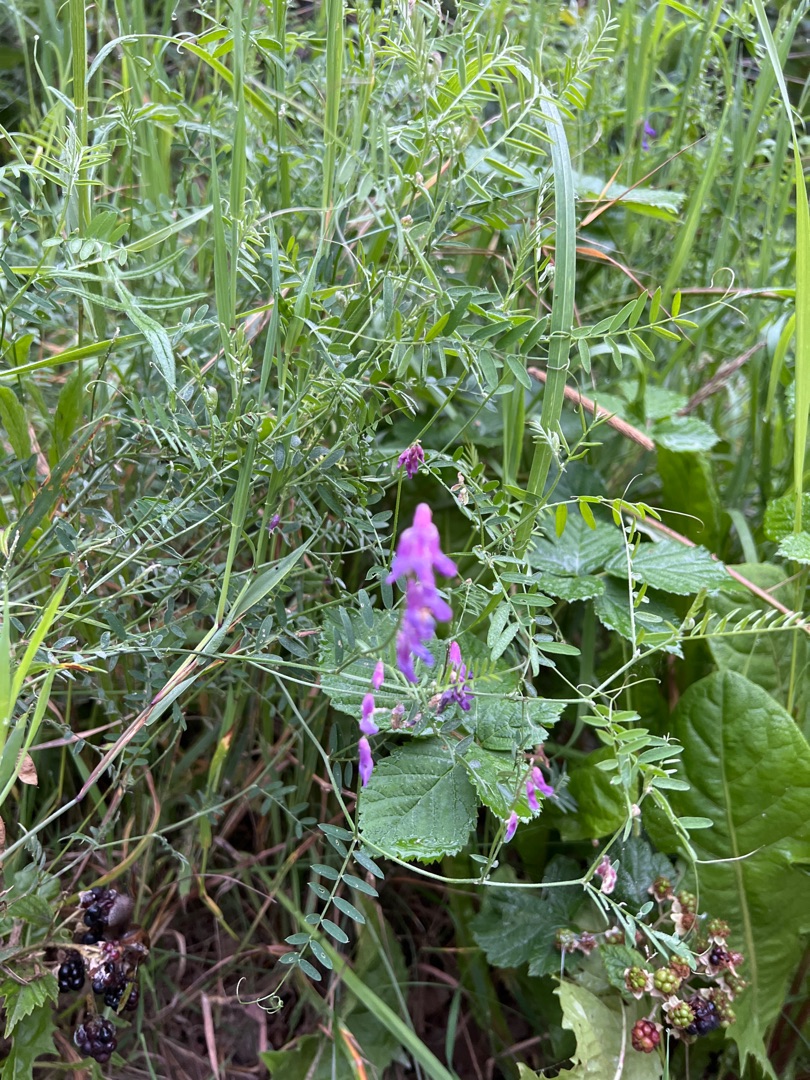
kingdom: Plantae
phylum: Tracheophyta
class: Magnoliopsida
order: Fabales
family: Fabaceae
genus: Vicia
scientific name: Vicia cracca
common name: Muse-vikke
